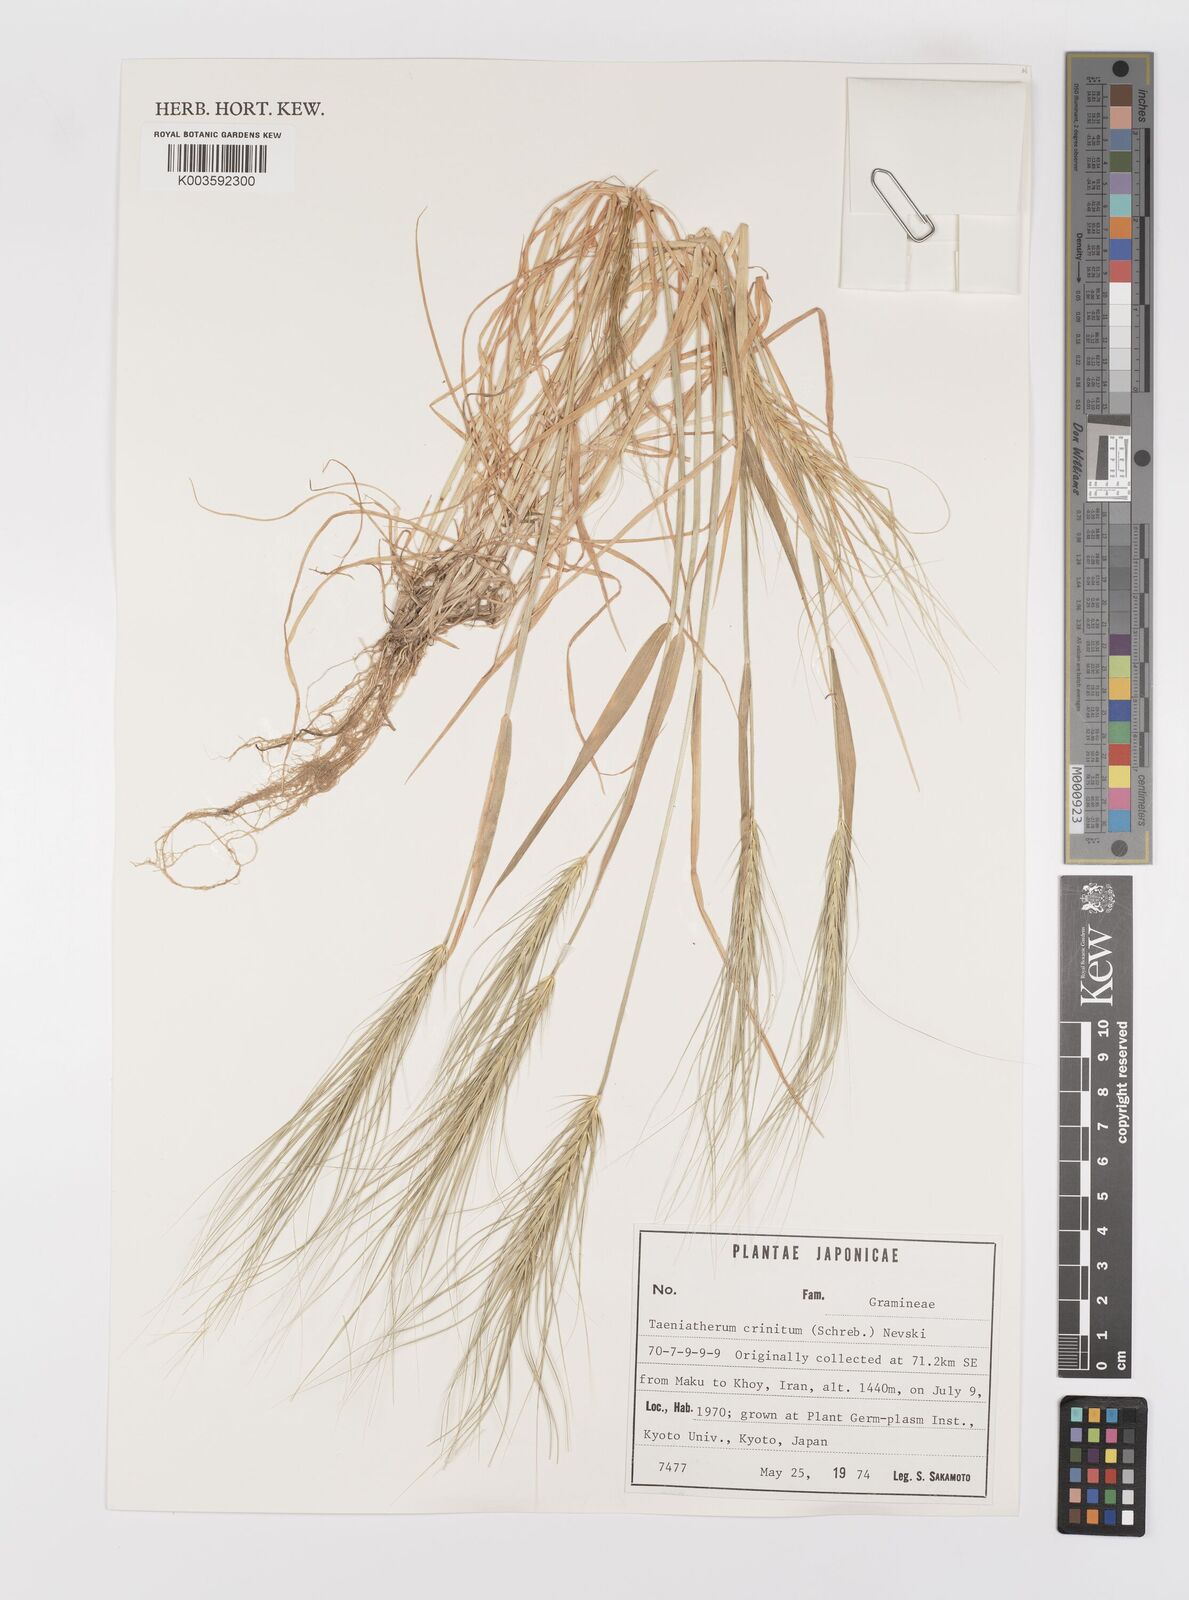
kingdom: Plantae
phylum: Tracheophyta
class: Liliopsida
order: Poales
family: Poaceae
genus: Taeniatherum
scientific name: Taeniatherum caput-medusae
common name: Medusahead
